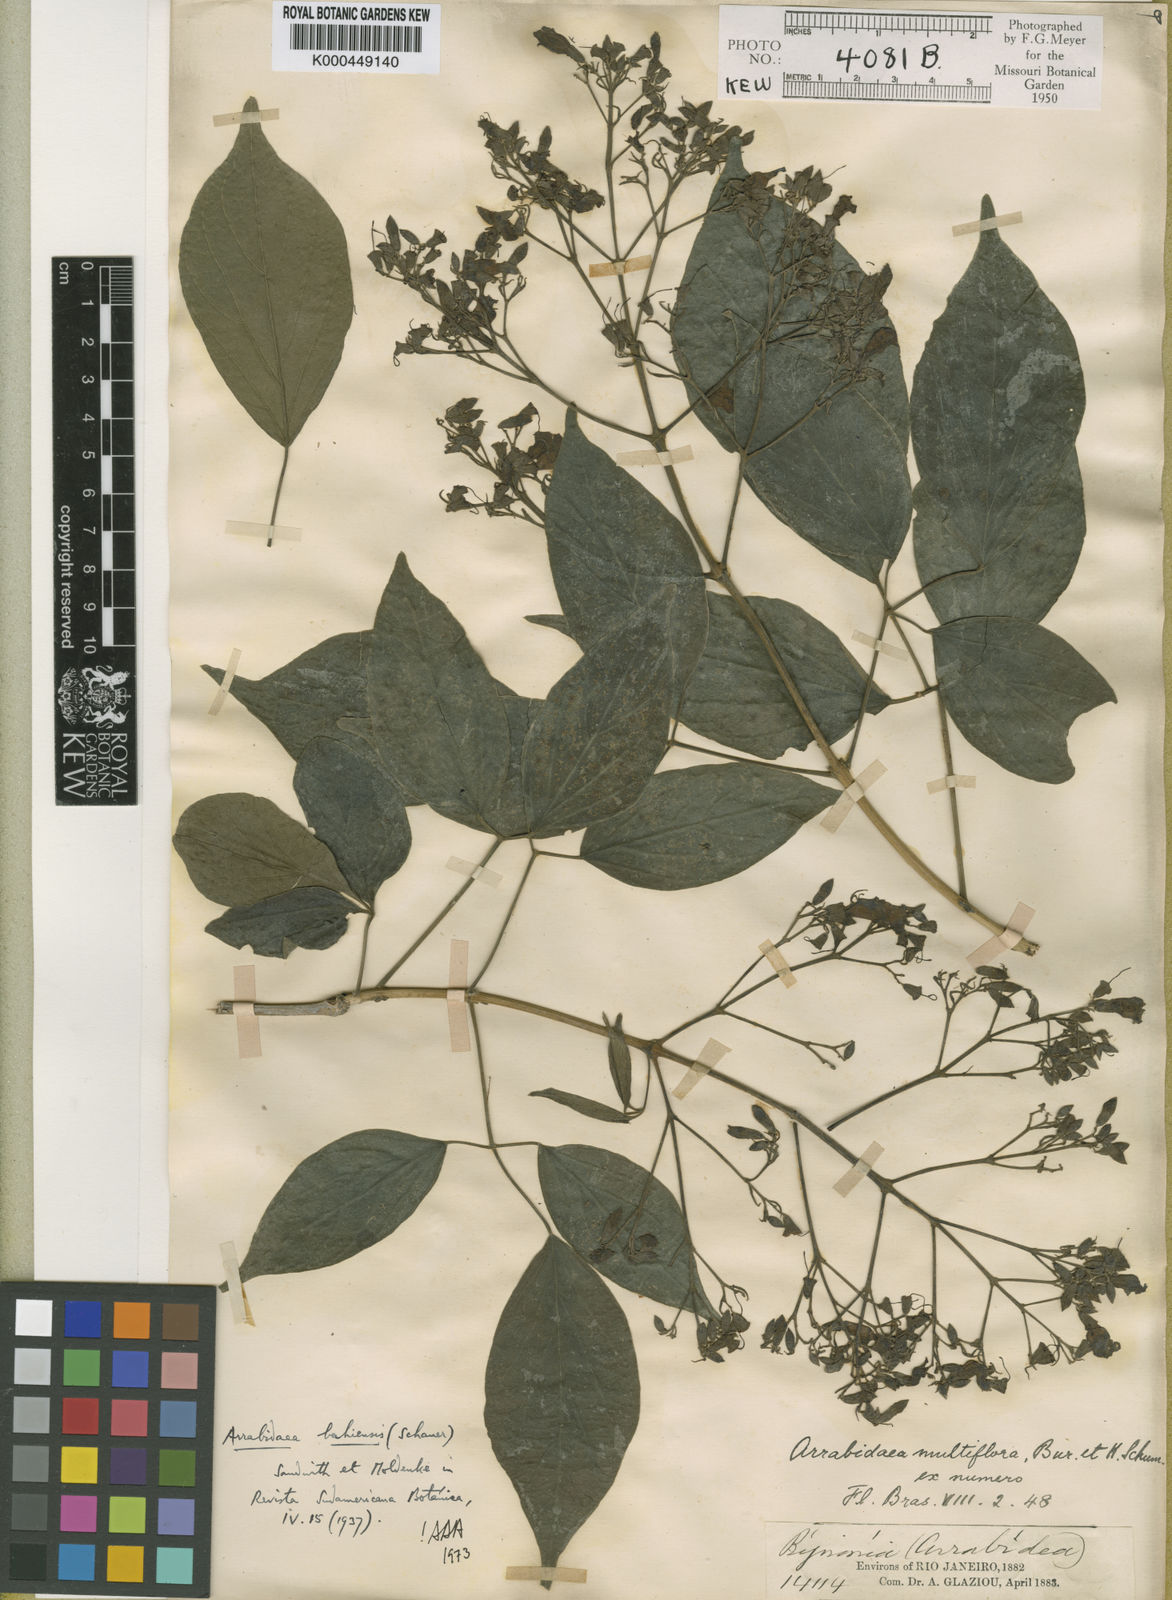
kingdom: Plantae
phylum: Tracheophyta
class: Magnoliopsida
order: Lamiales
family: Bignoniaceae
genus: Fridericia
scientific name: Fridericia bahiensis
